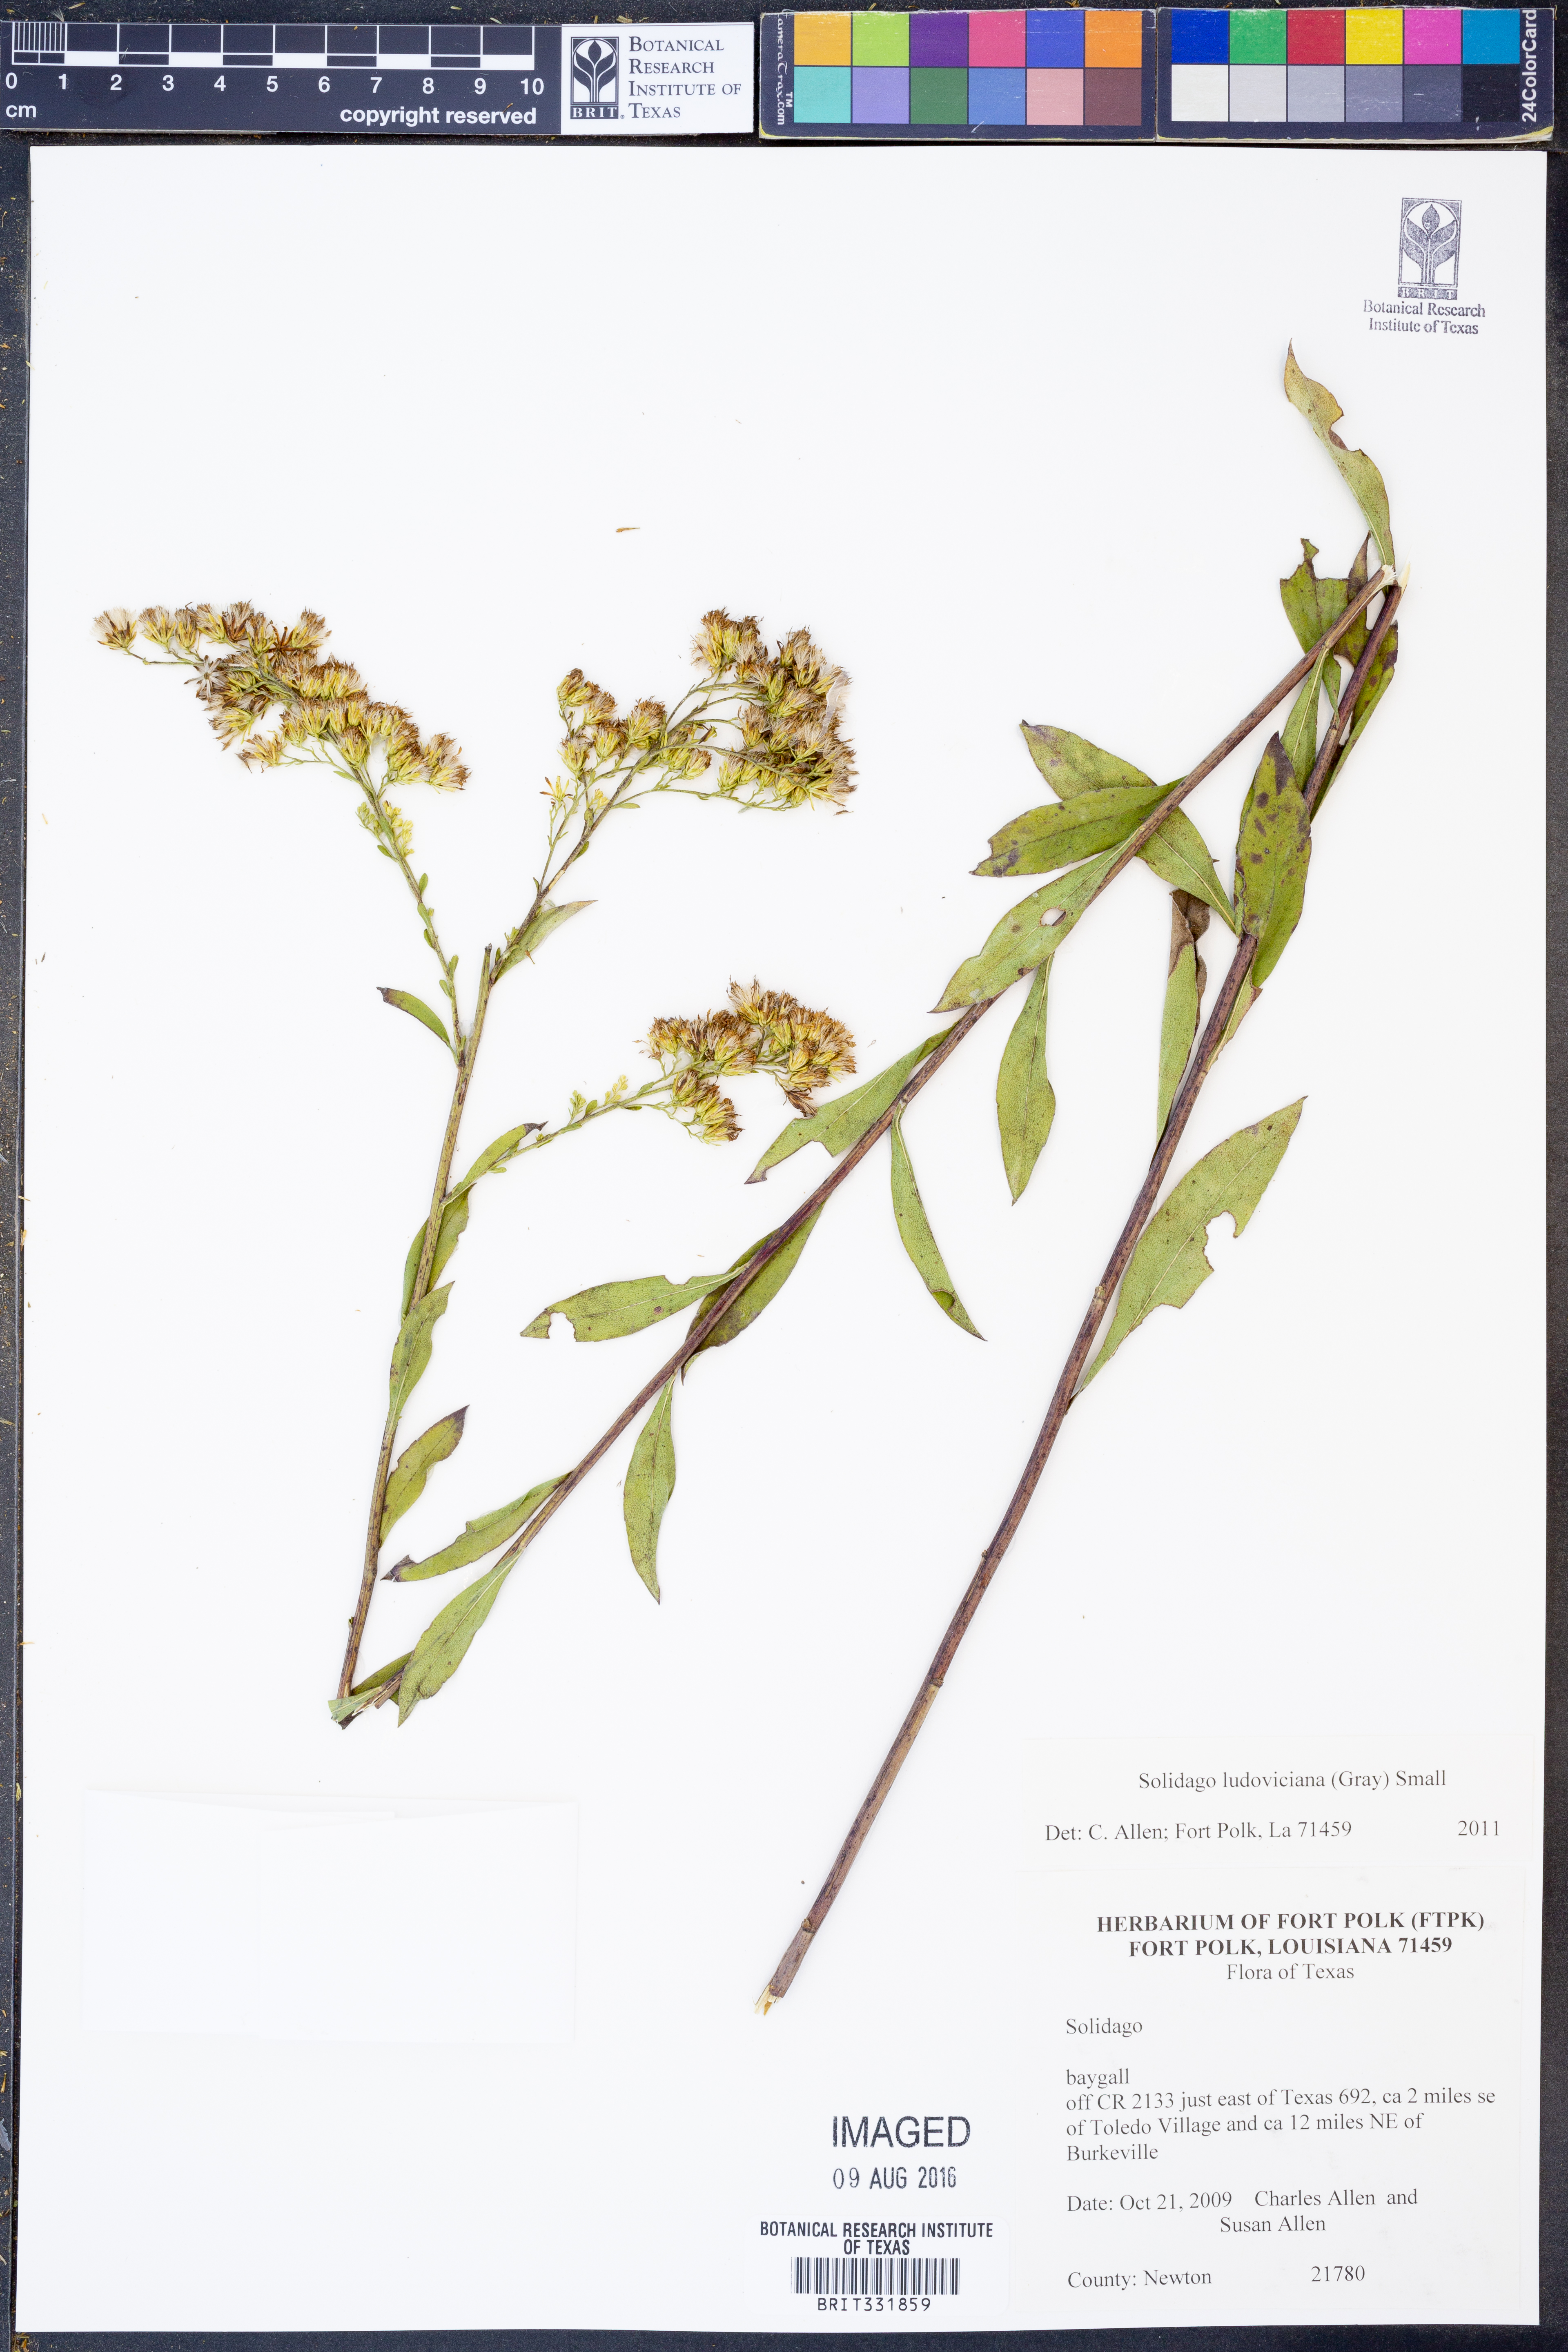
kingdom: Plantae
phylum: Tracheophyta
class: Magnoliopsida
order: Asterales
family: Asteraceae
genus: Solidago
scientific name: Solidago ludoviciana
